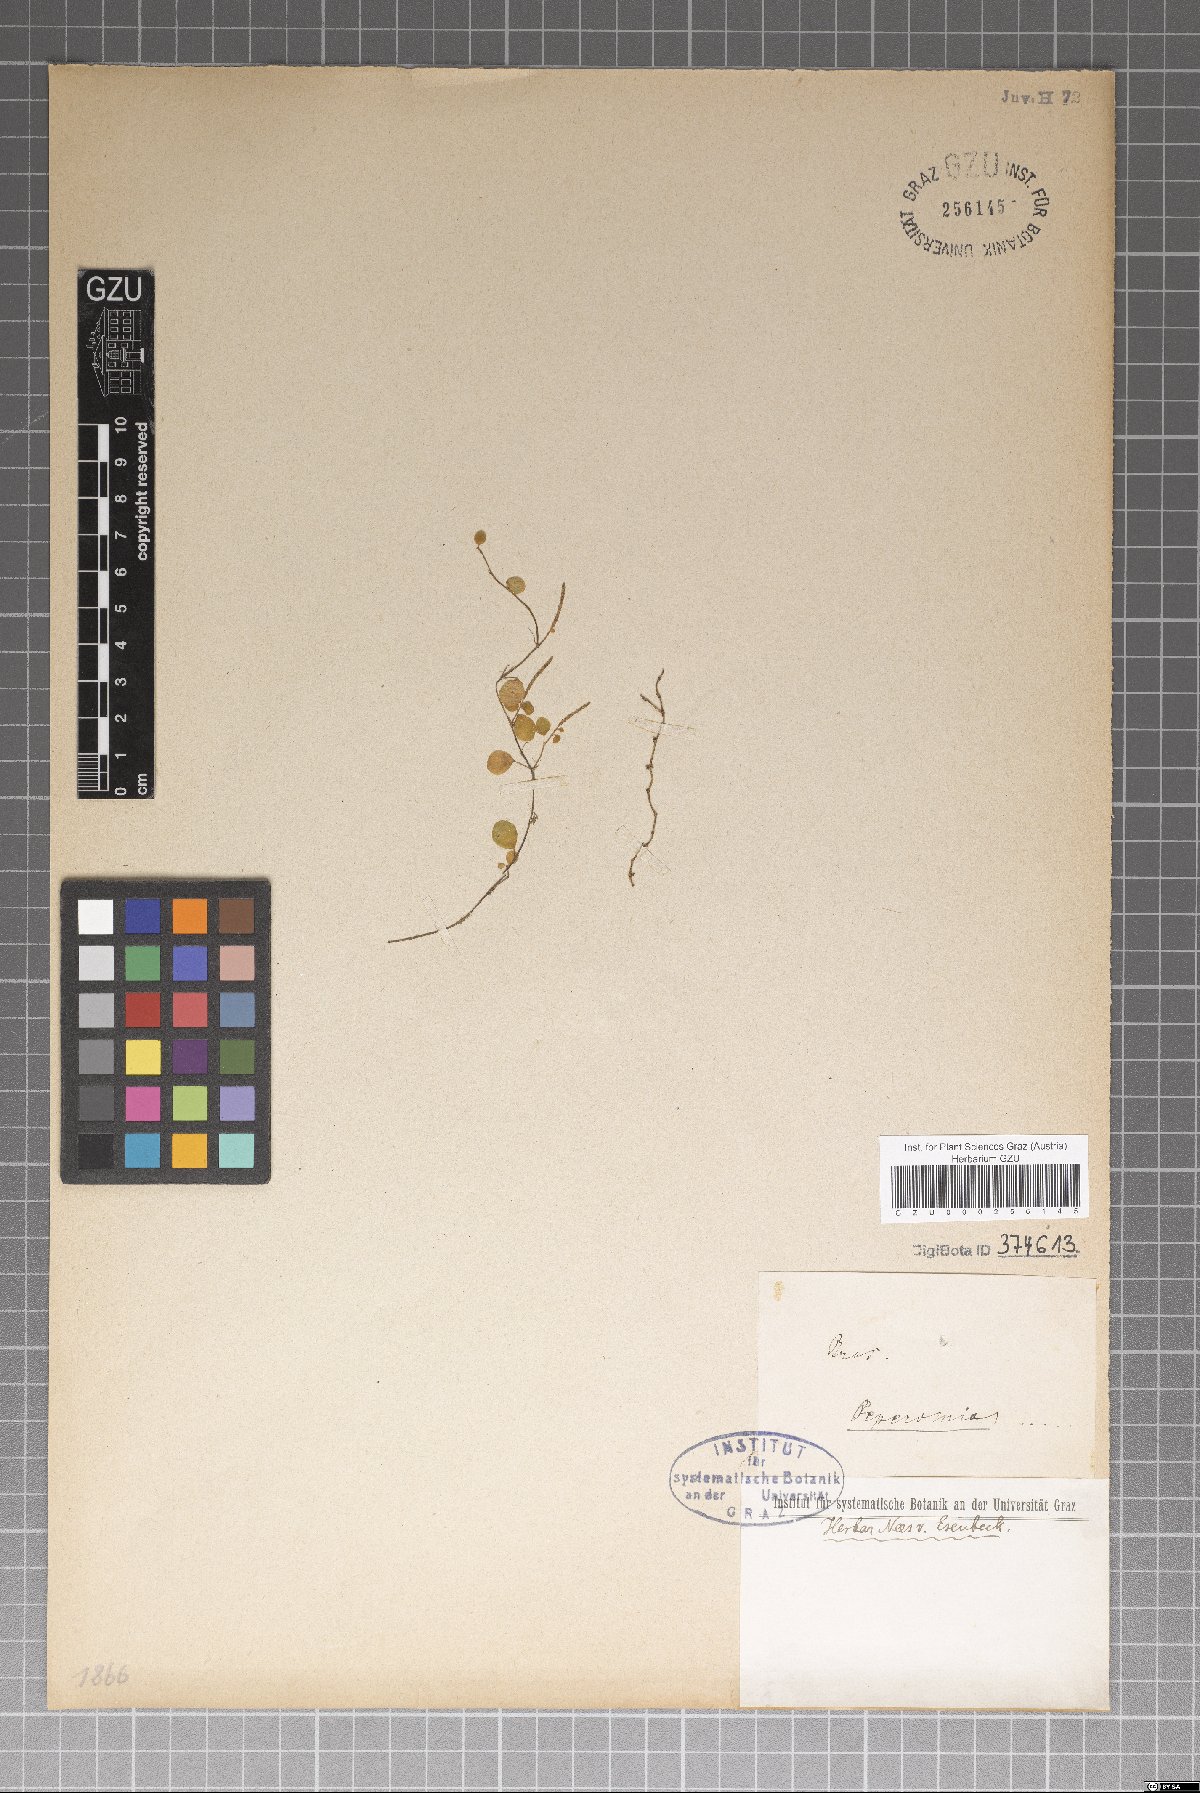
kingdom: Plantae
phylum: Tracheophyta
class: Magnoliopsida
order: Piperales
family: Piperaceae
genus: Peperomia
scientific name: Peperomia
